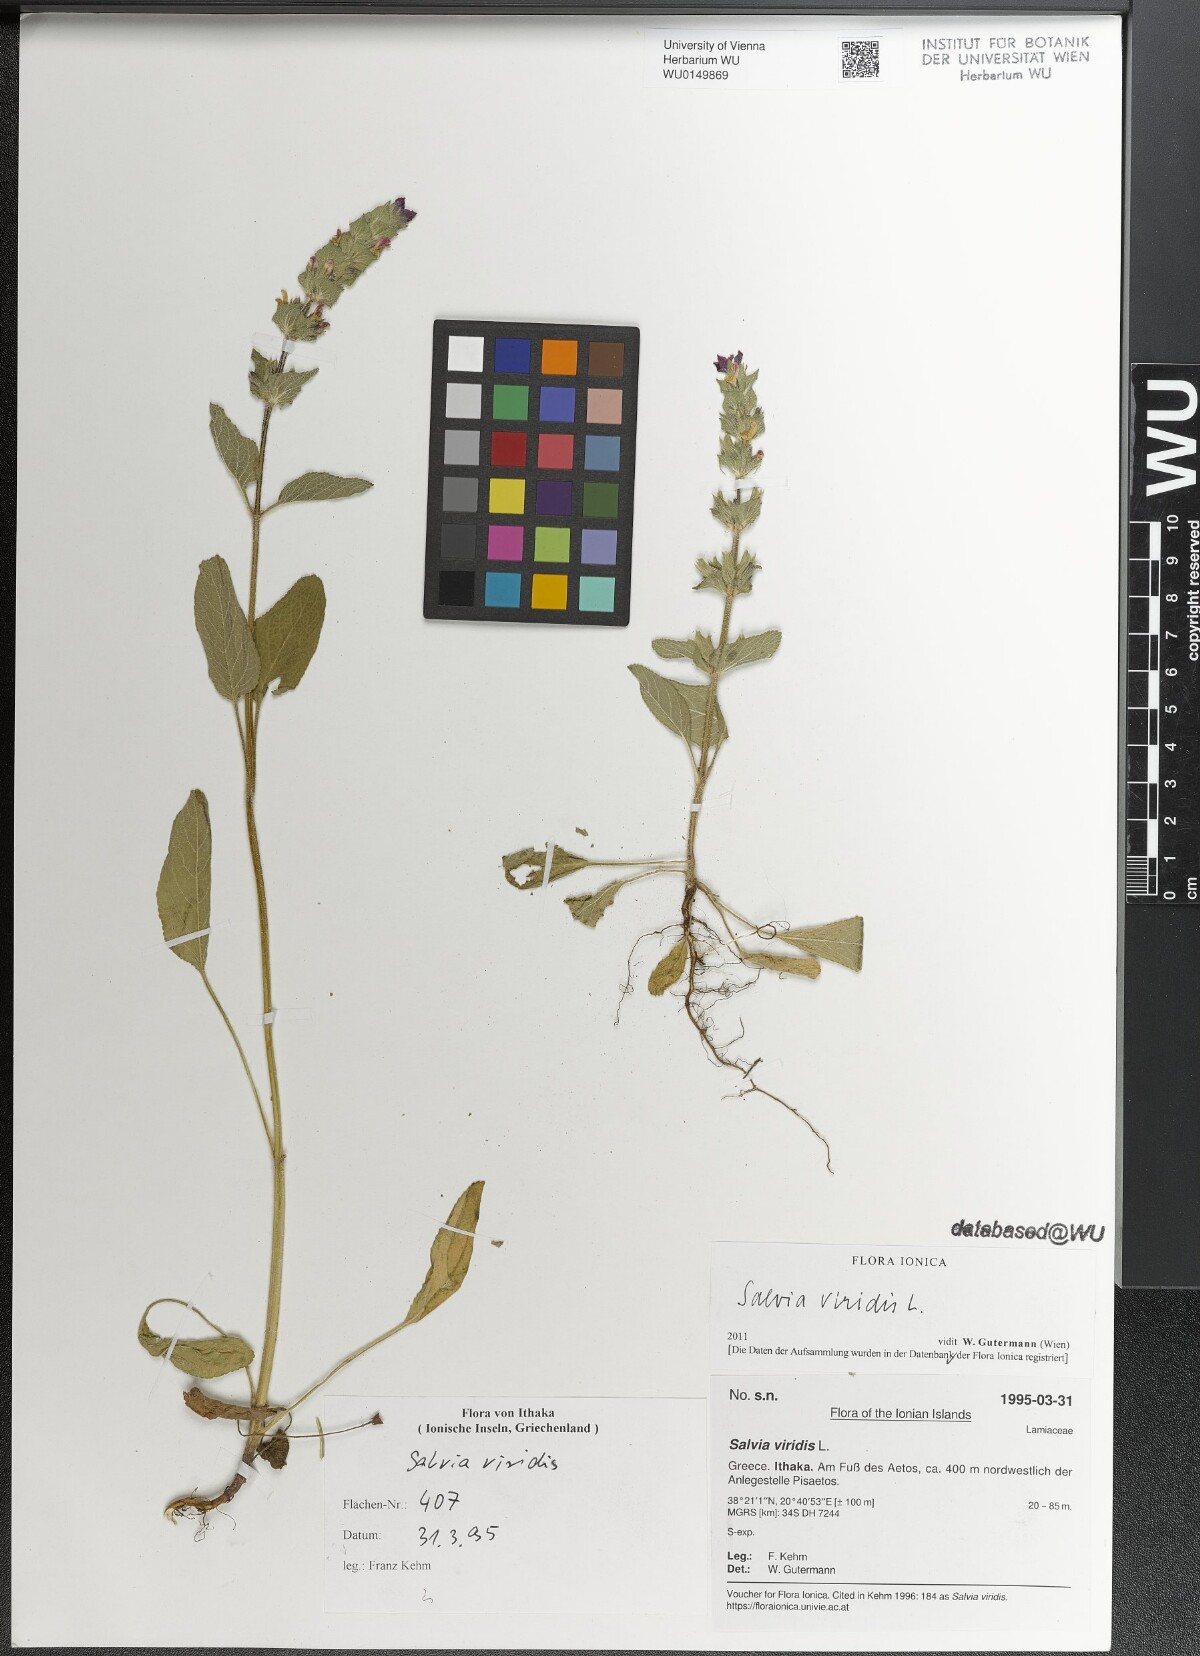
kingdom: Plantae
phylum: Tracheophyta
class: Magnoliopsida
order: Lamiales
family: Lamiaceae
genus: Salvia
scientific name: Salvia viridis
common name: Annual clary
